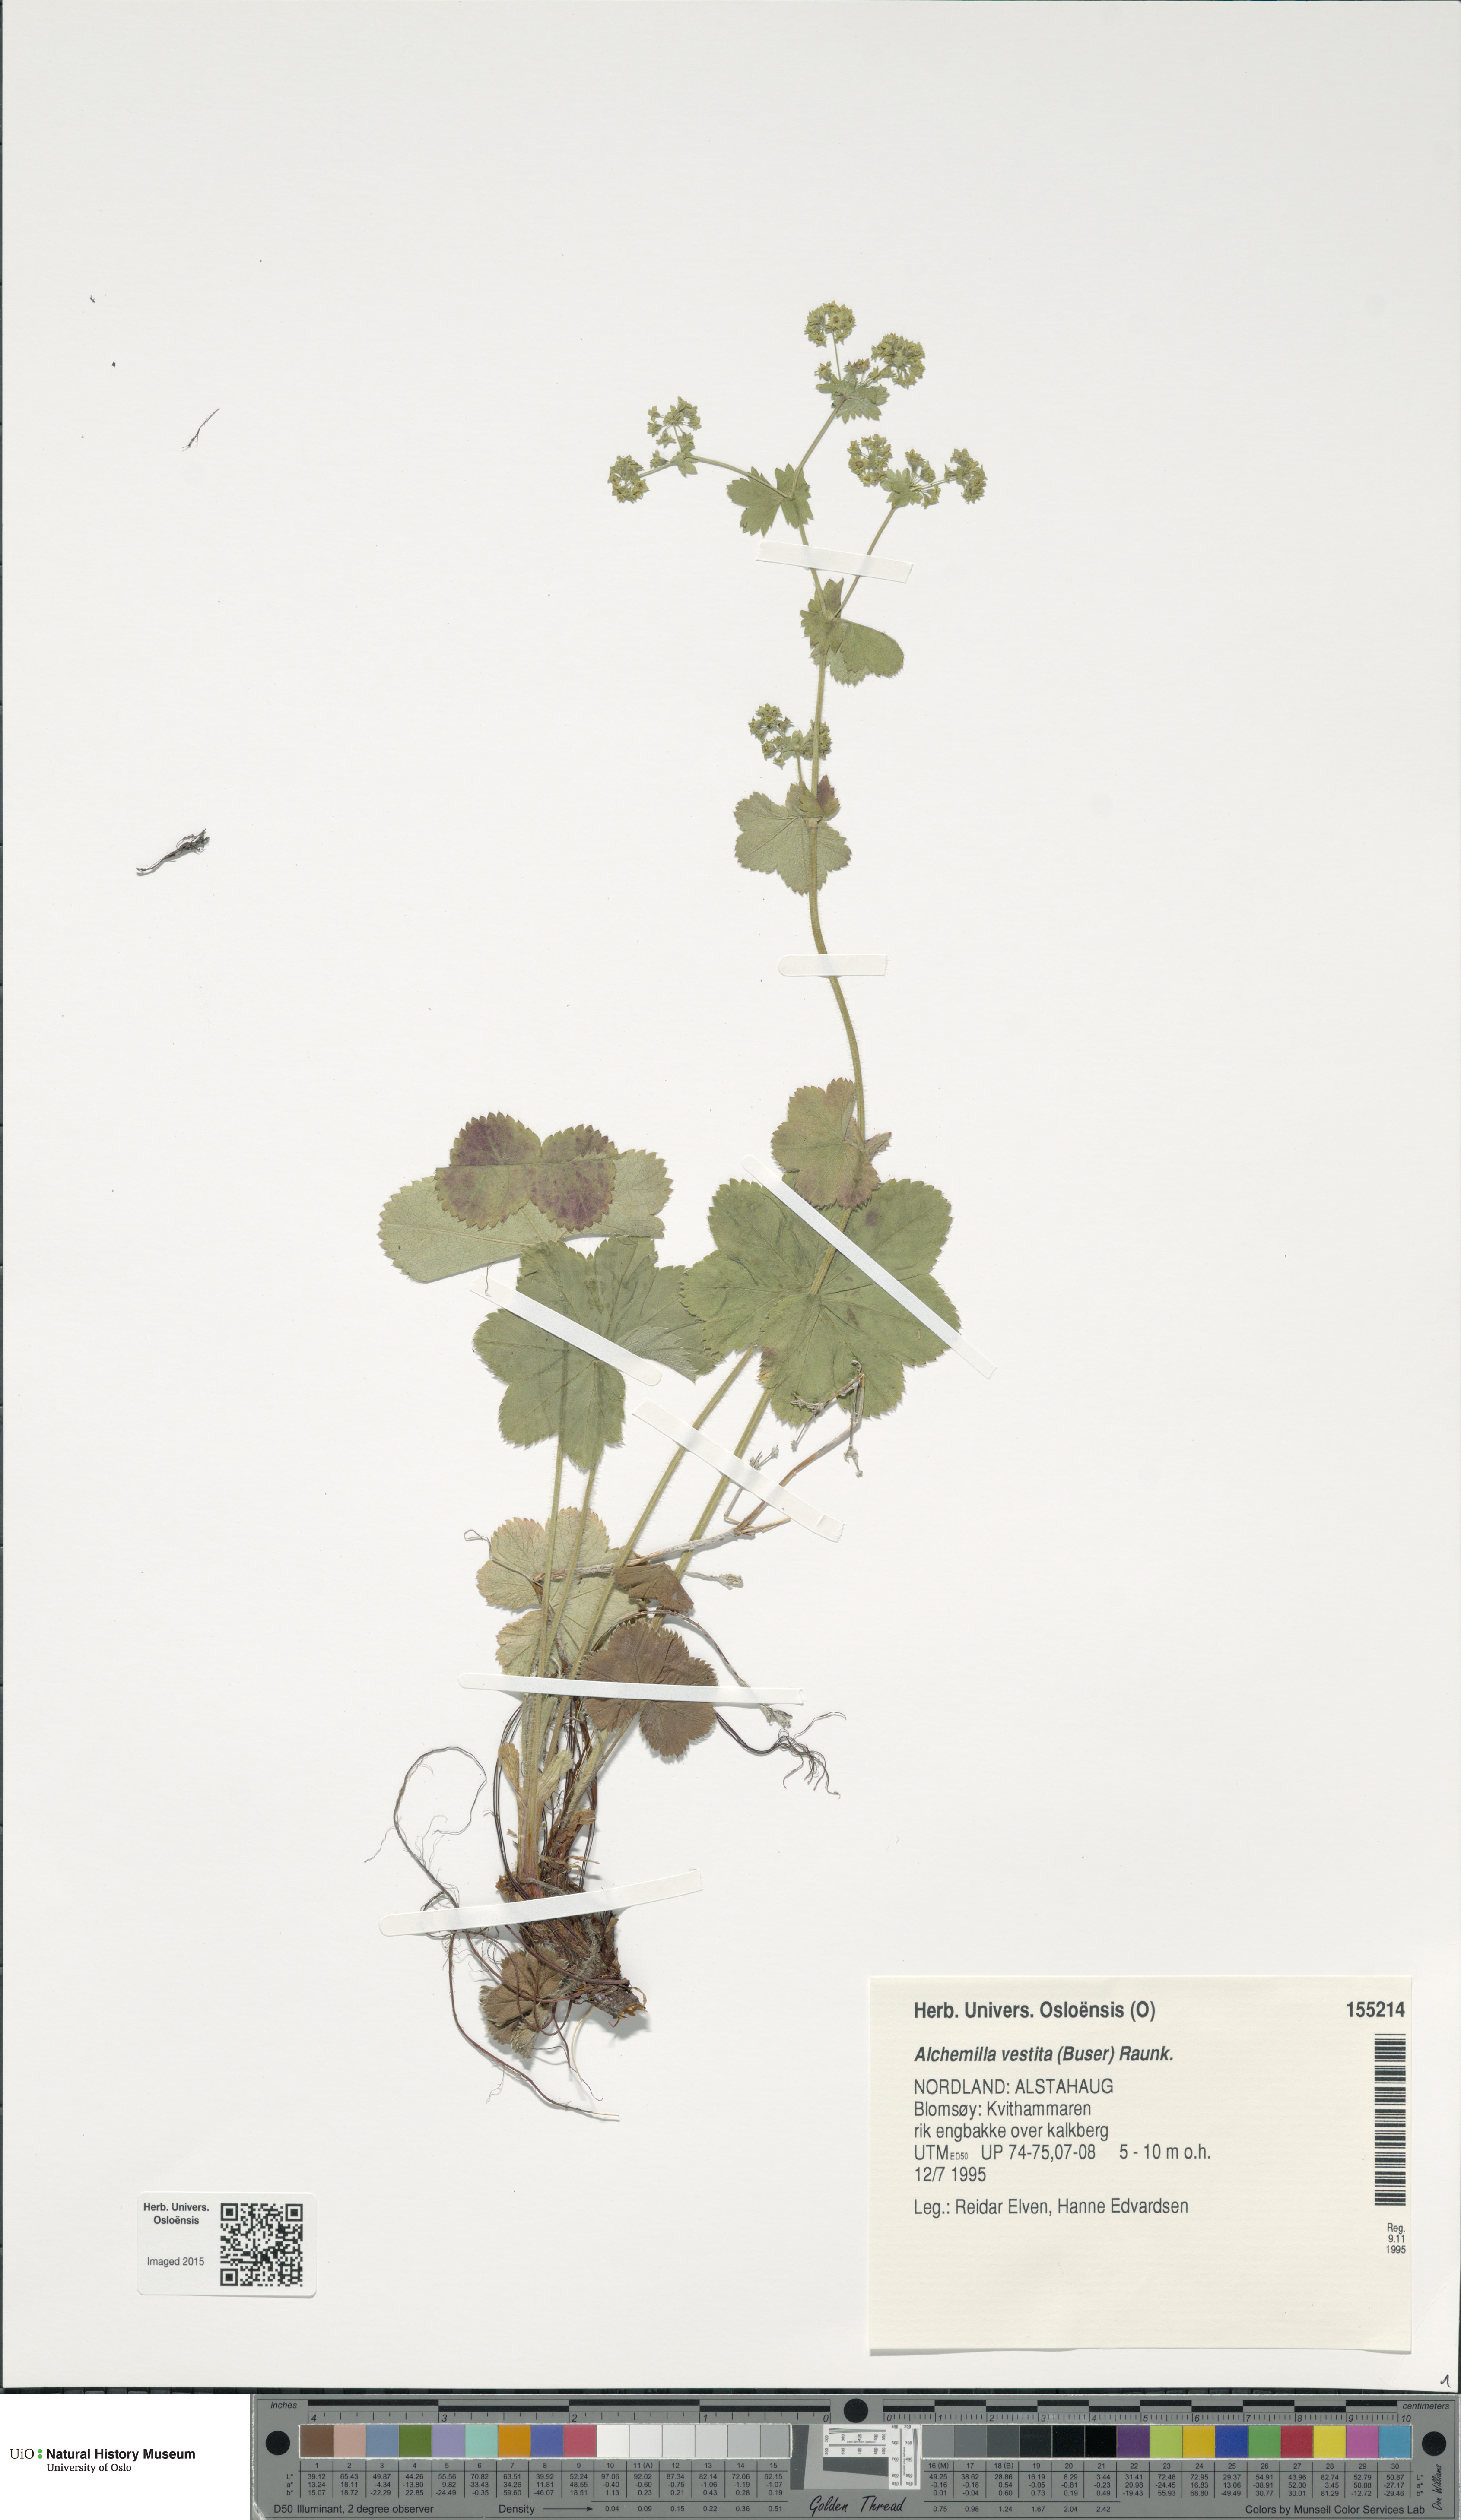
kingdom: Plantae
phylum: Tracheophyta
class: Magnoliopsida
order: Rosales
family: Rosaceae
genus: Alchemilla
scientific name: Alchemilla filicaulis
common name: Hairy lady's-mantle
